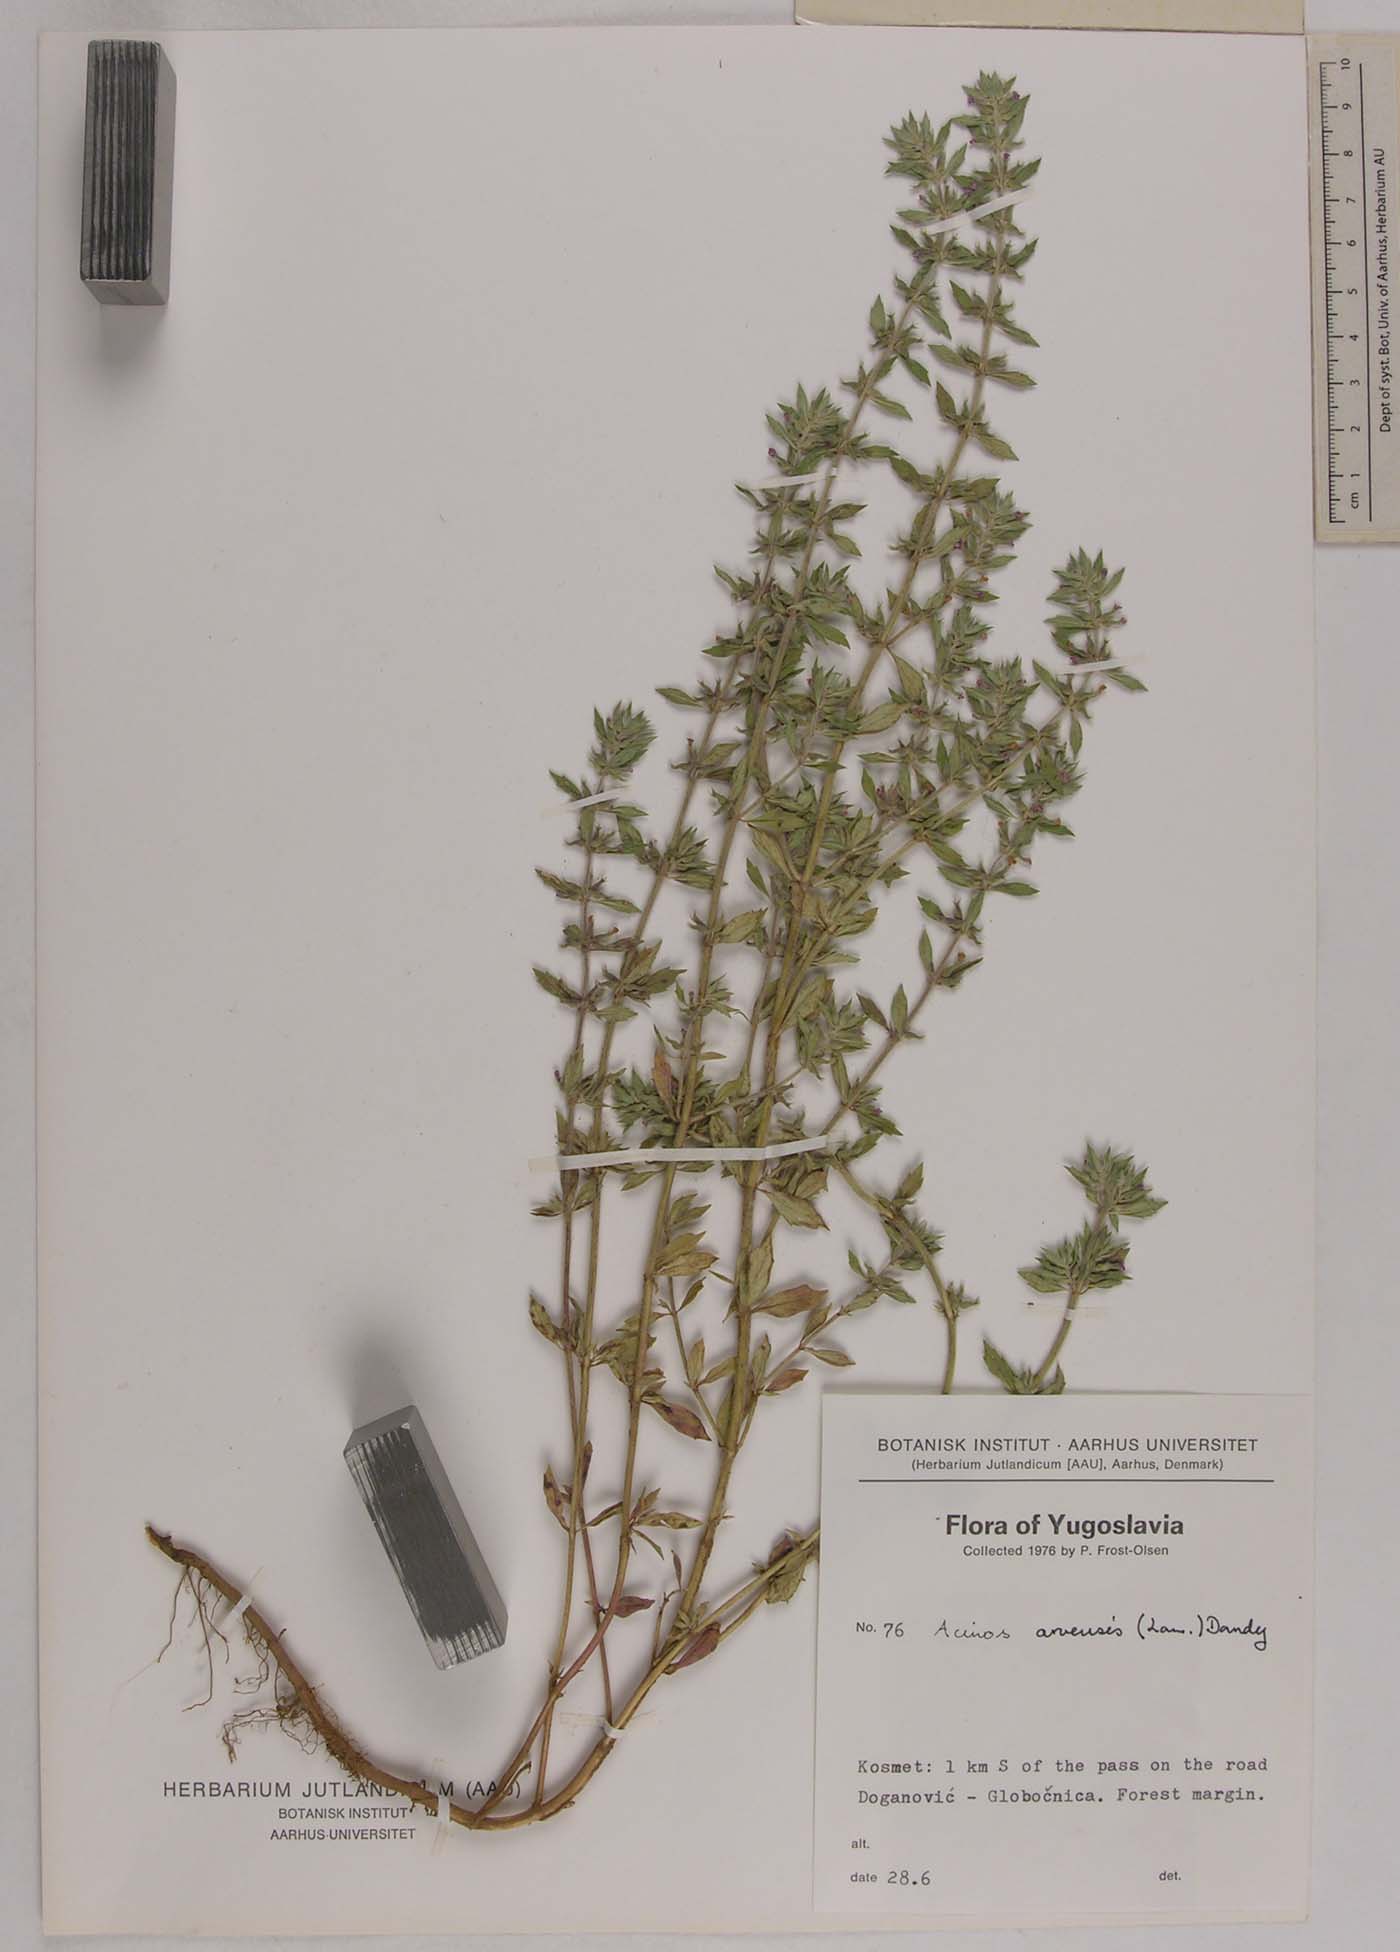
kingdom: Plantae
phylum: Tracheophyta
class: Magnoliopsida
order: Lamiales
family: Lamiaceae
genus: Clinopodium
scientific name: Clinopodium acinos
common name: Basil thyme
